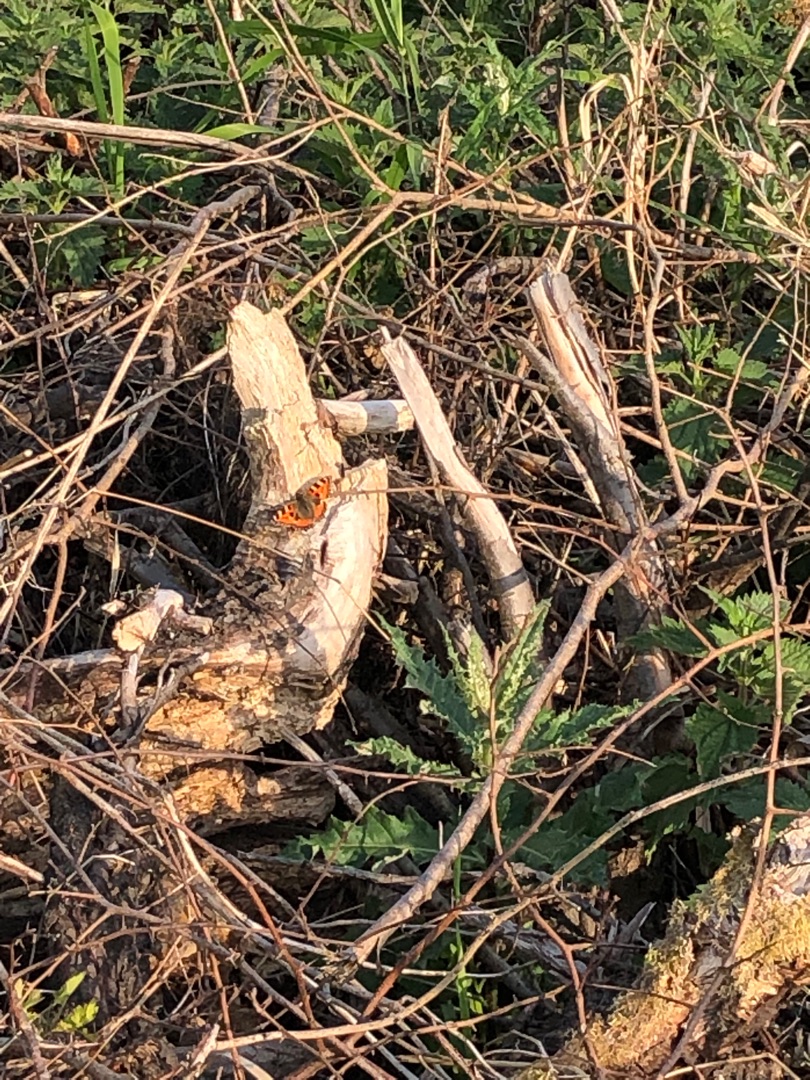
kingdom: Animalia
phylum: Arthropoda
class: Insecta
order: Lepidoptera
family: Nymphalidae
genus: Aglais
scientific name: Aglais urticae
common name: Nældens takvinge
